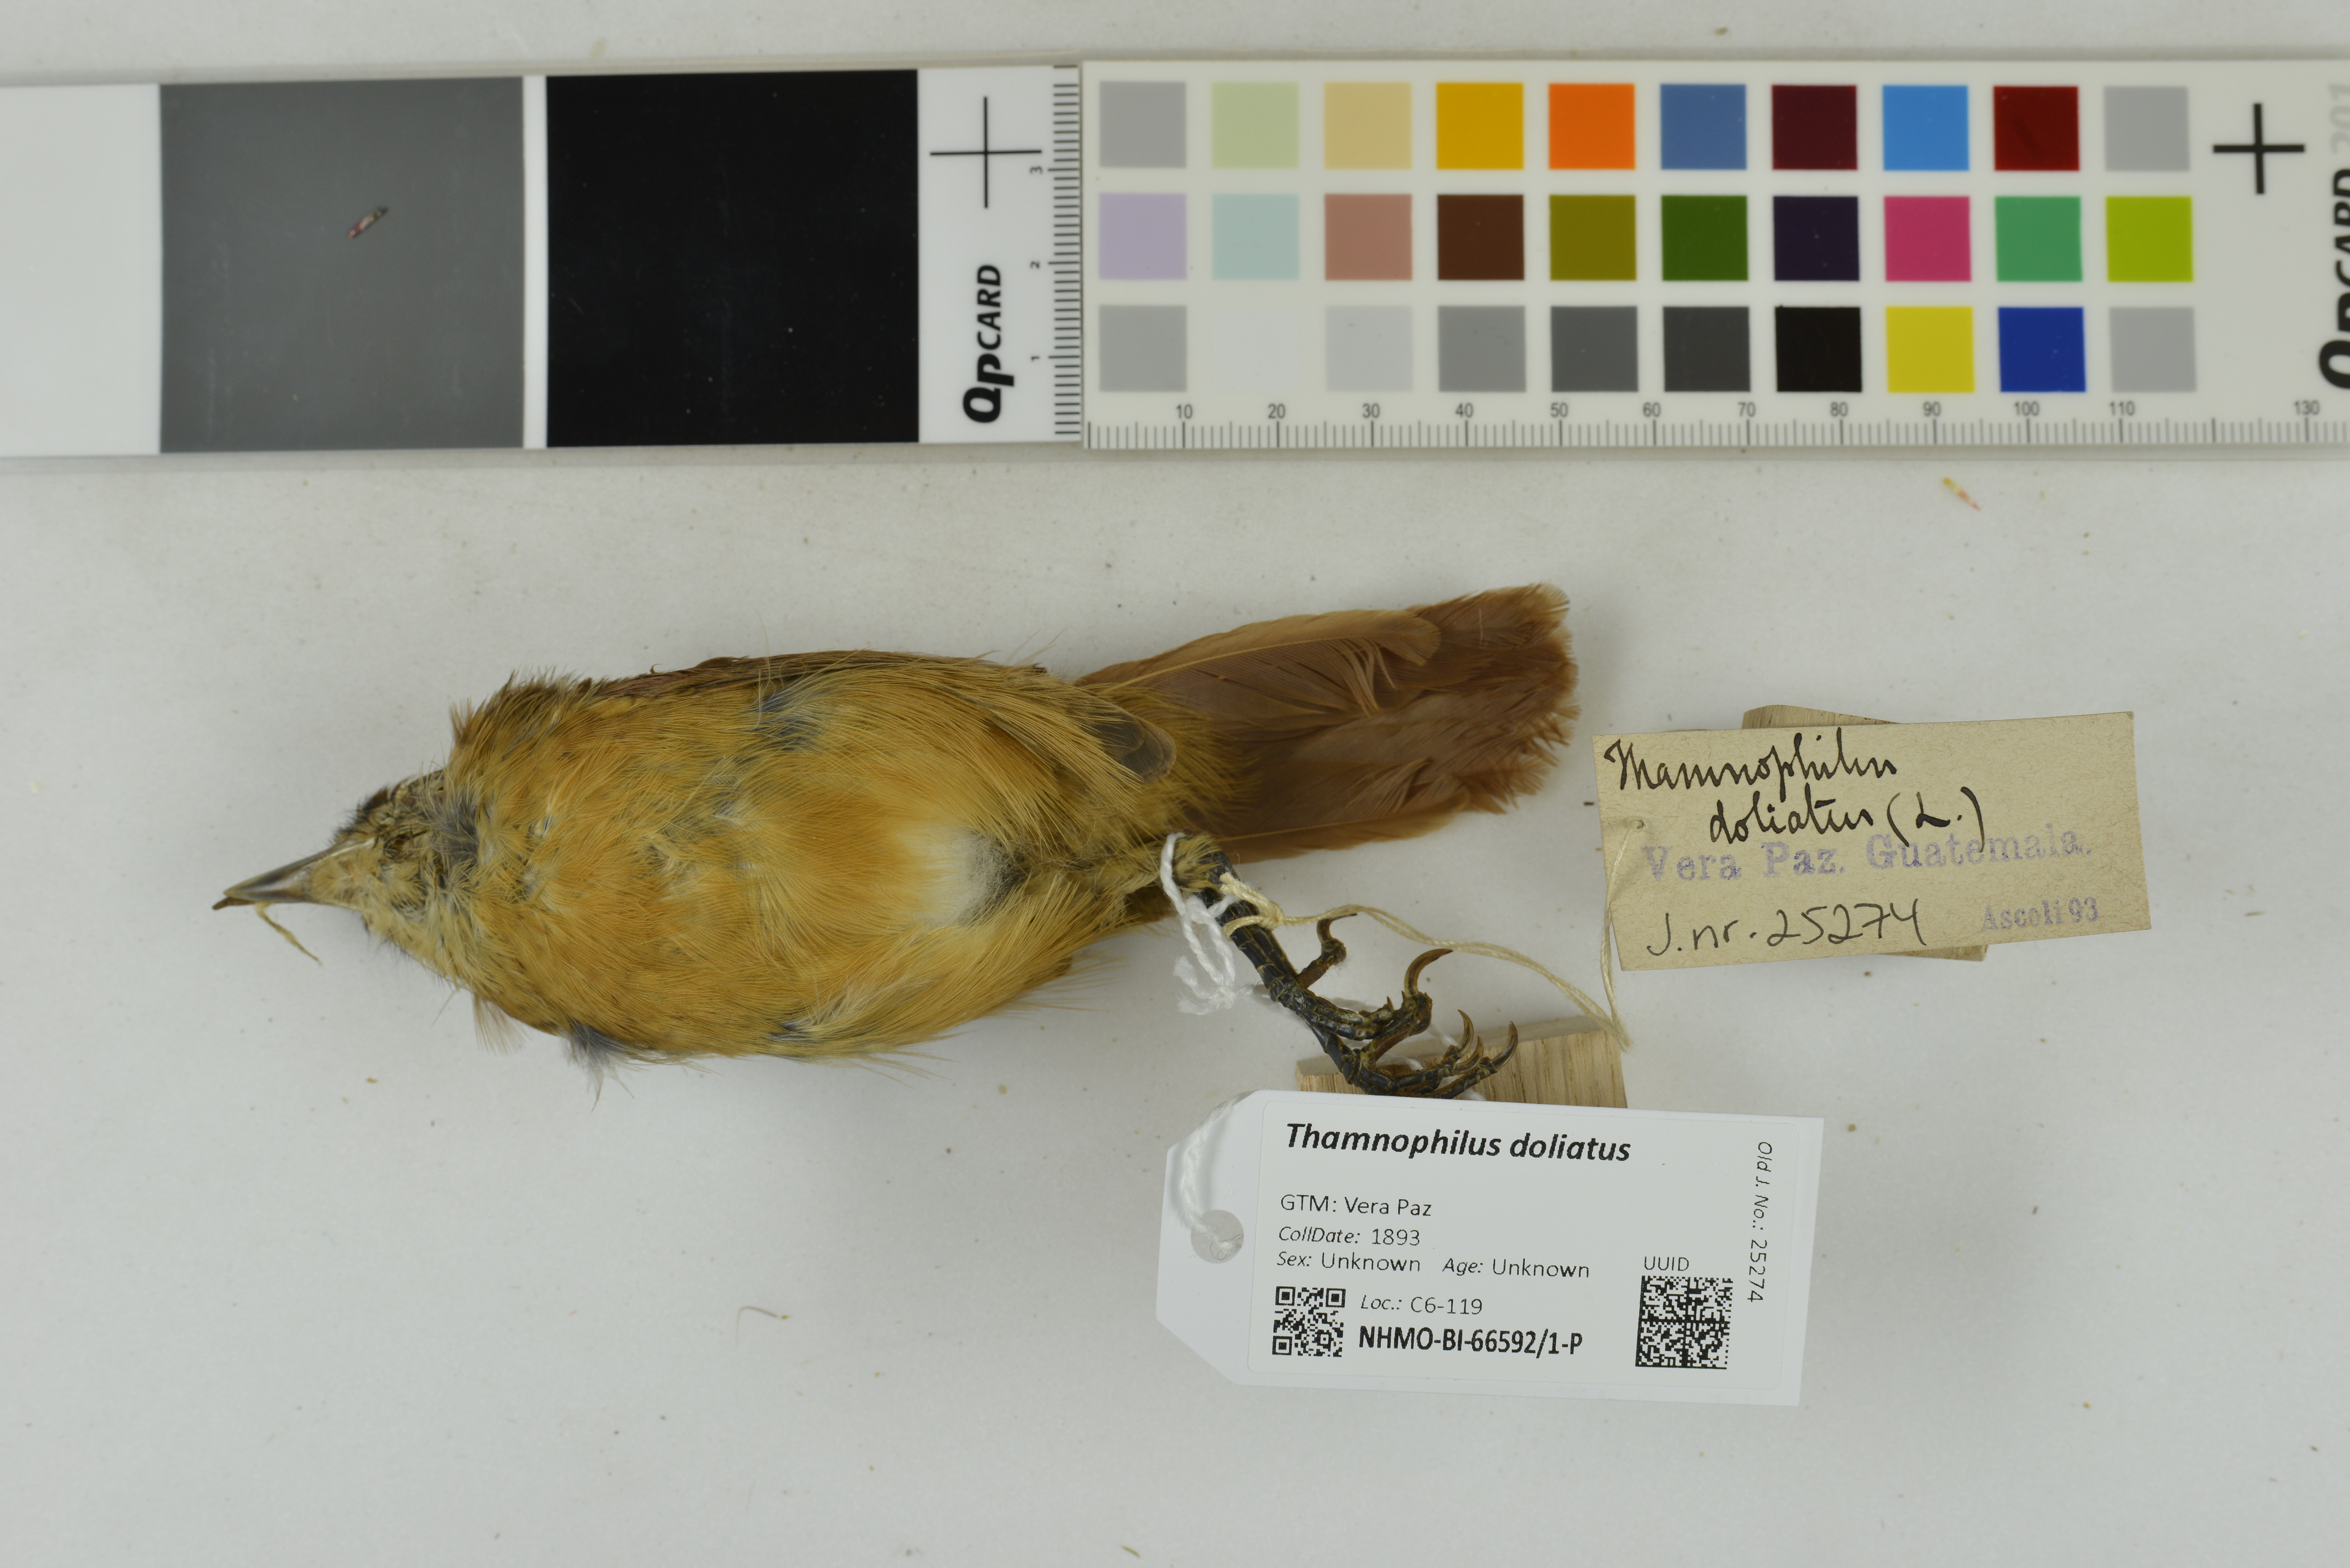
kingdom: Animalia
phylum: Chordata
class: Aves
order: Passeriformes
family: Thamnophilidae
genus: Thamnophilus
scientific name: Thamnophilus doliatus
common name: Barred antshrike
